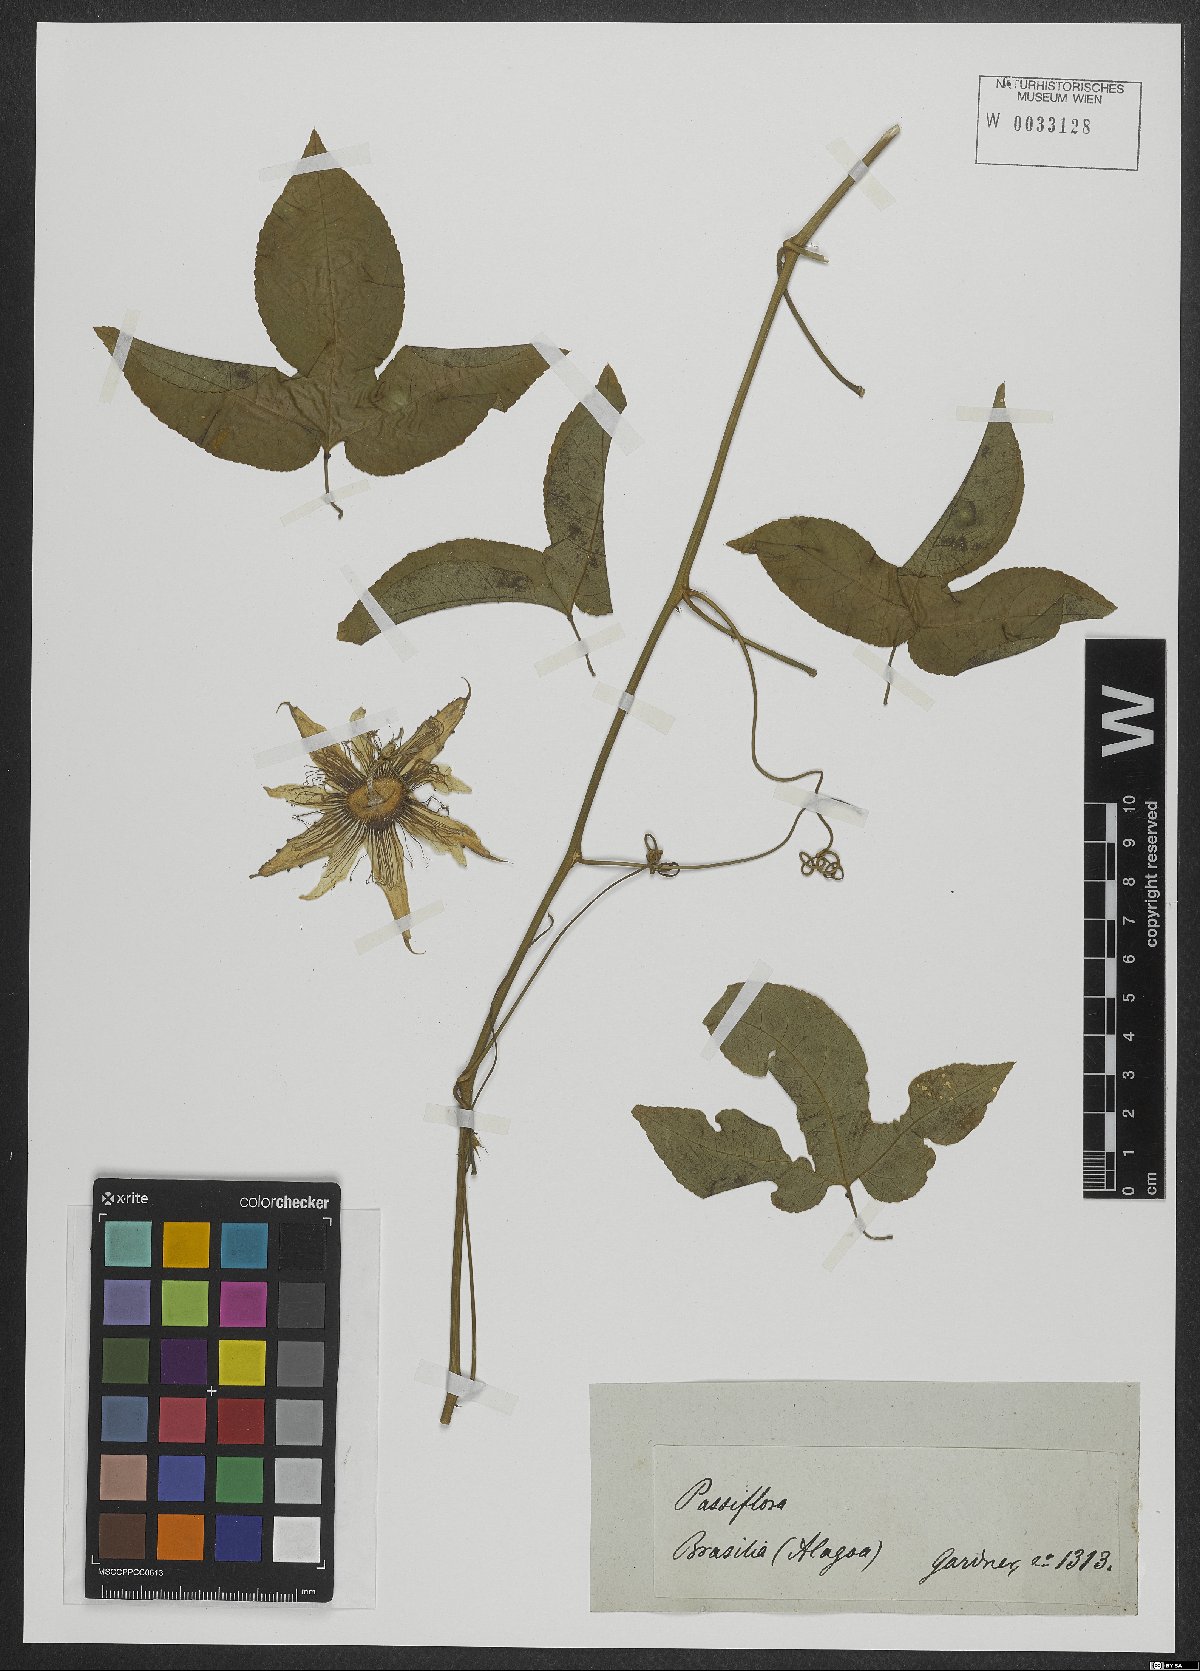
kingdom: Plantae
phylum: Tracheophyta
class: Magnoliopsida
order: Malpighiales
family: Passifloraceae
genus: Passiflora
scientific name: Passiflora edulis
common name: Purple granadilla
